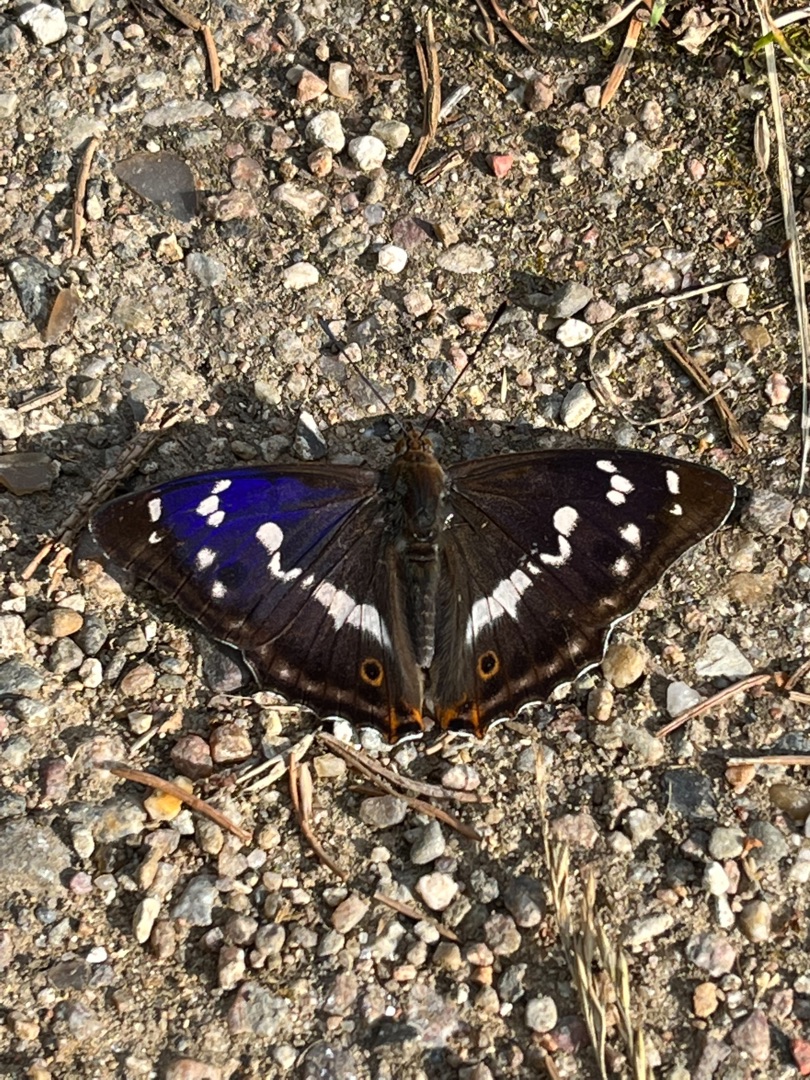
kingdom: Animalia
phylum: Arthropoda
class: Insecta
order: Lepidoptera
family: Nymphalidae
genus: Apatura
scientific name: Apatura iris
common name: Iris
